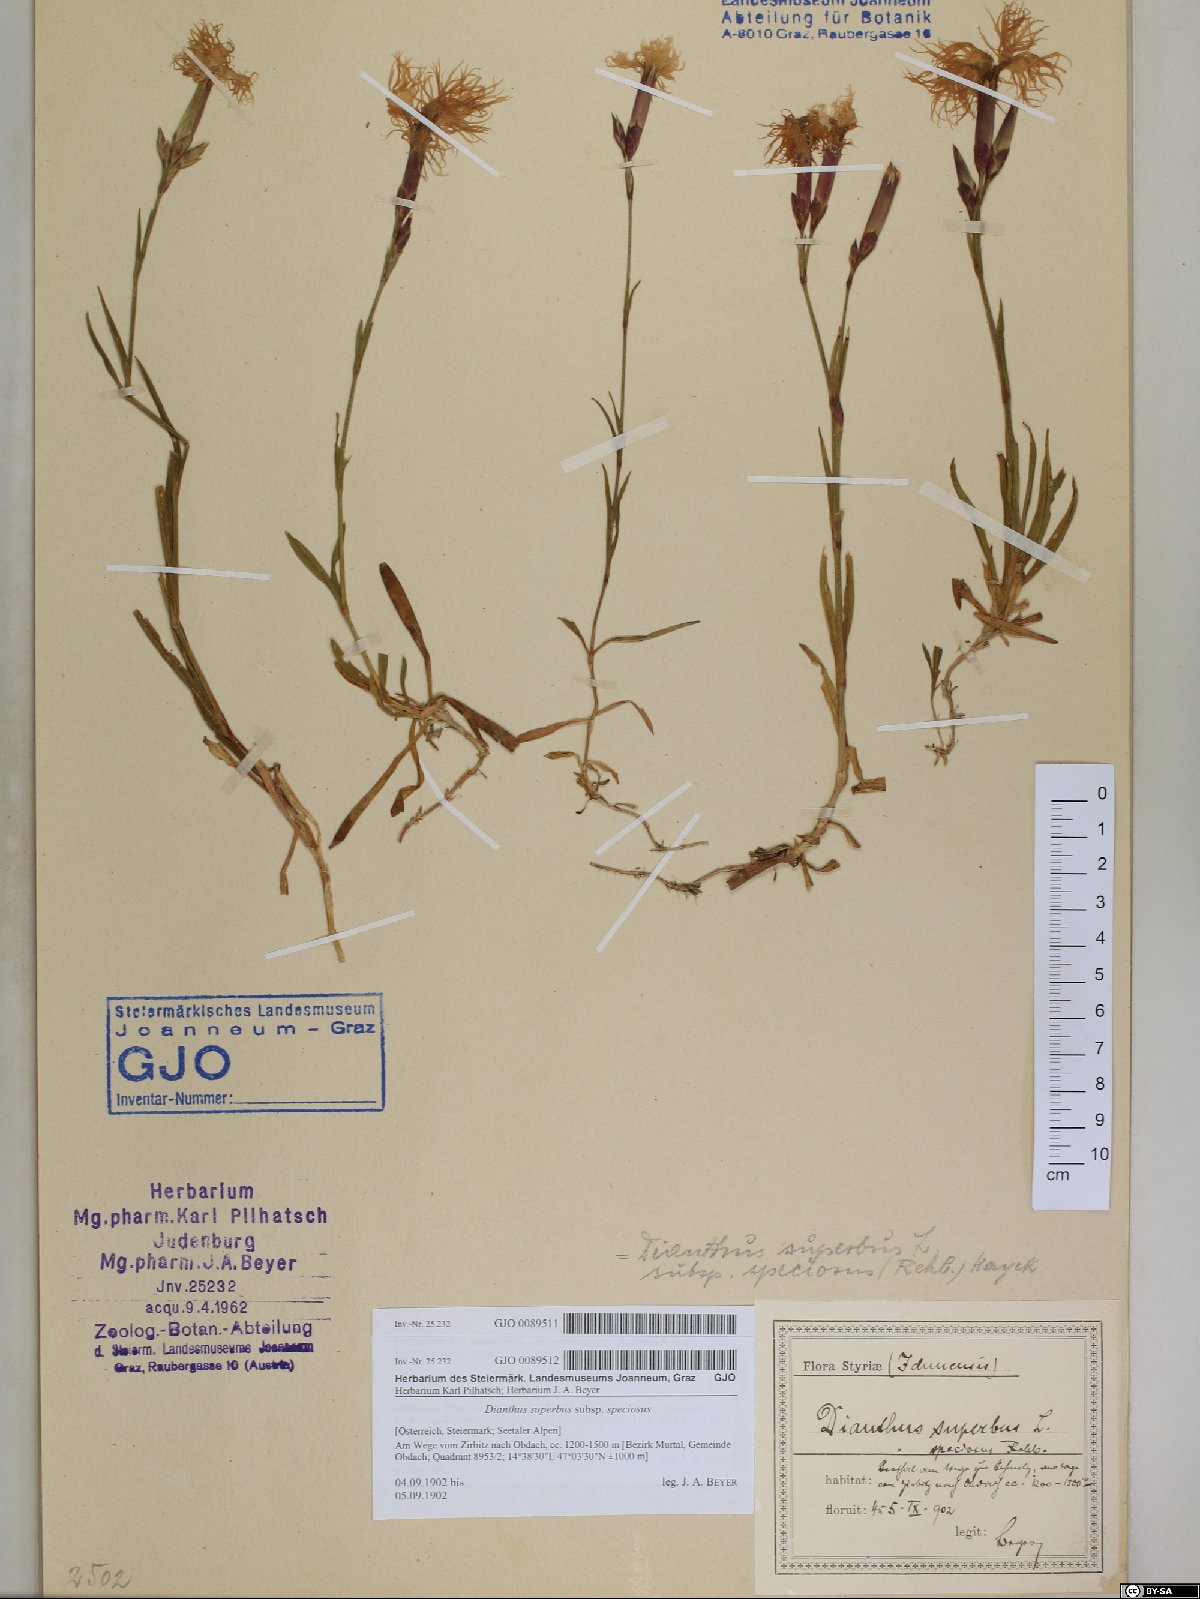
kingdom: Plantae
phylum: Tracheophyta
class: Magnoliopsida
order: Caryophyllales
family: Caryophyllaceae
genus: Dianthus
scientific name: Dianthus superbus
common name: Fringed pink
